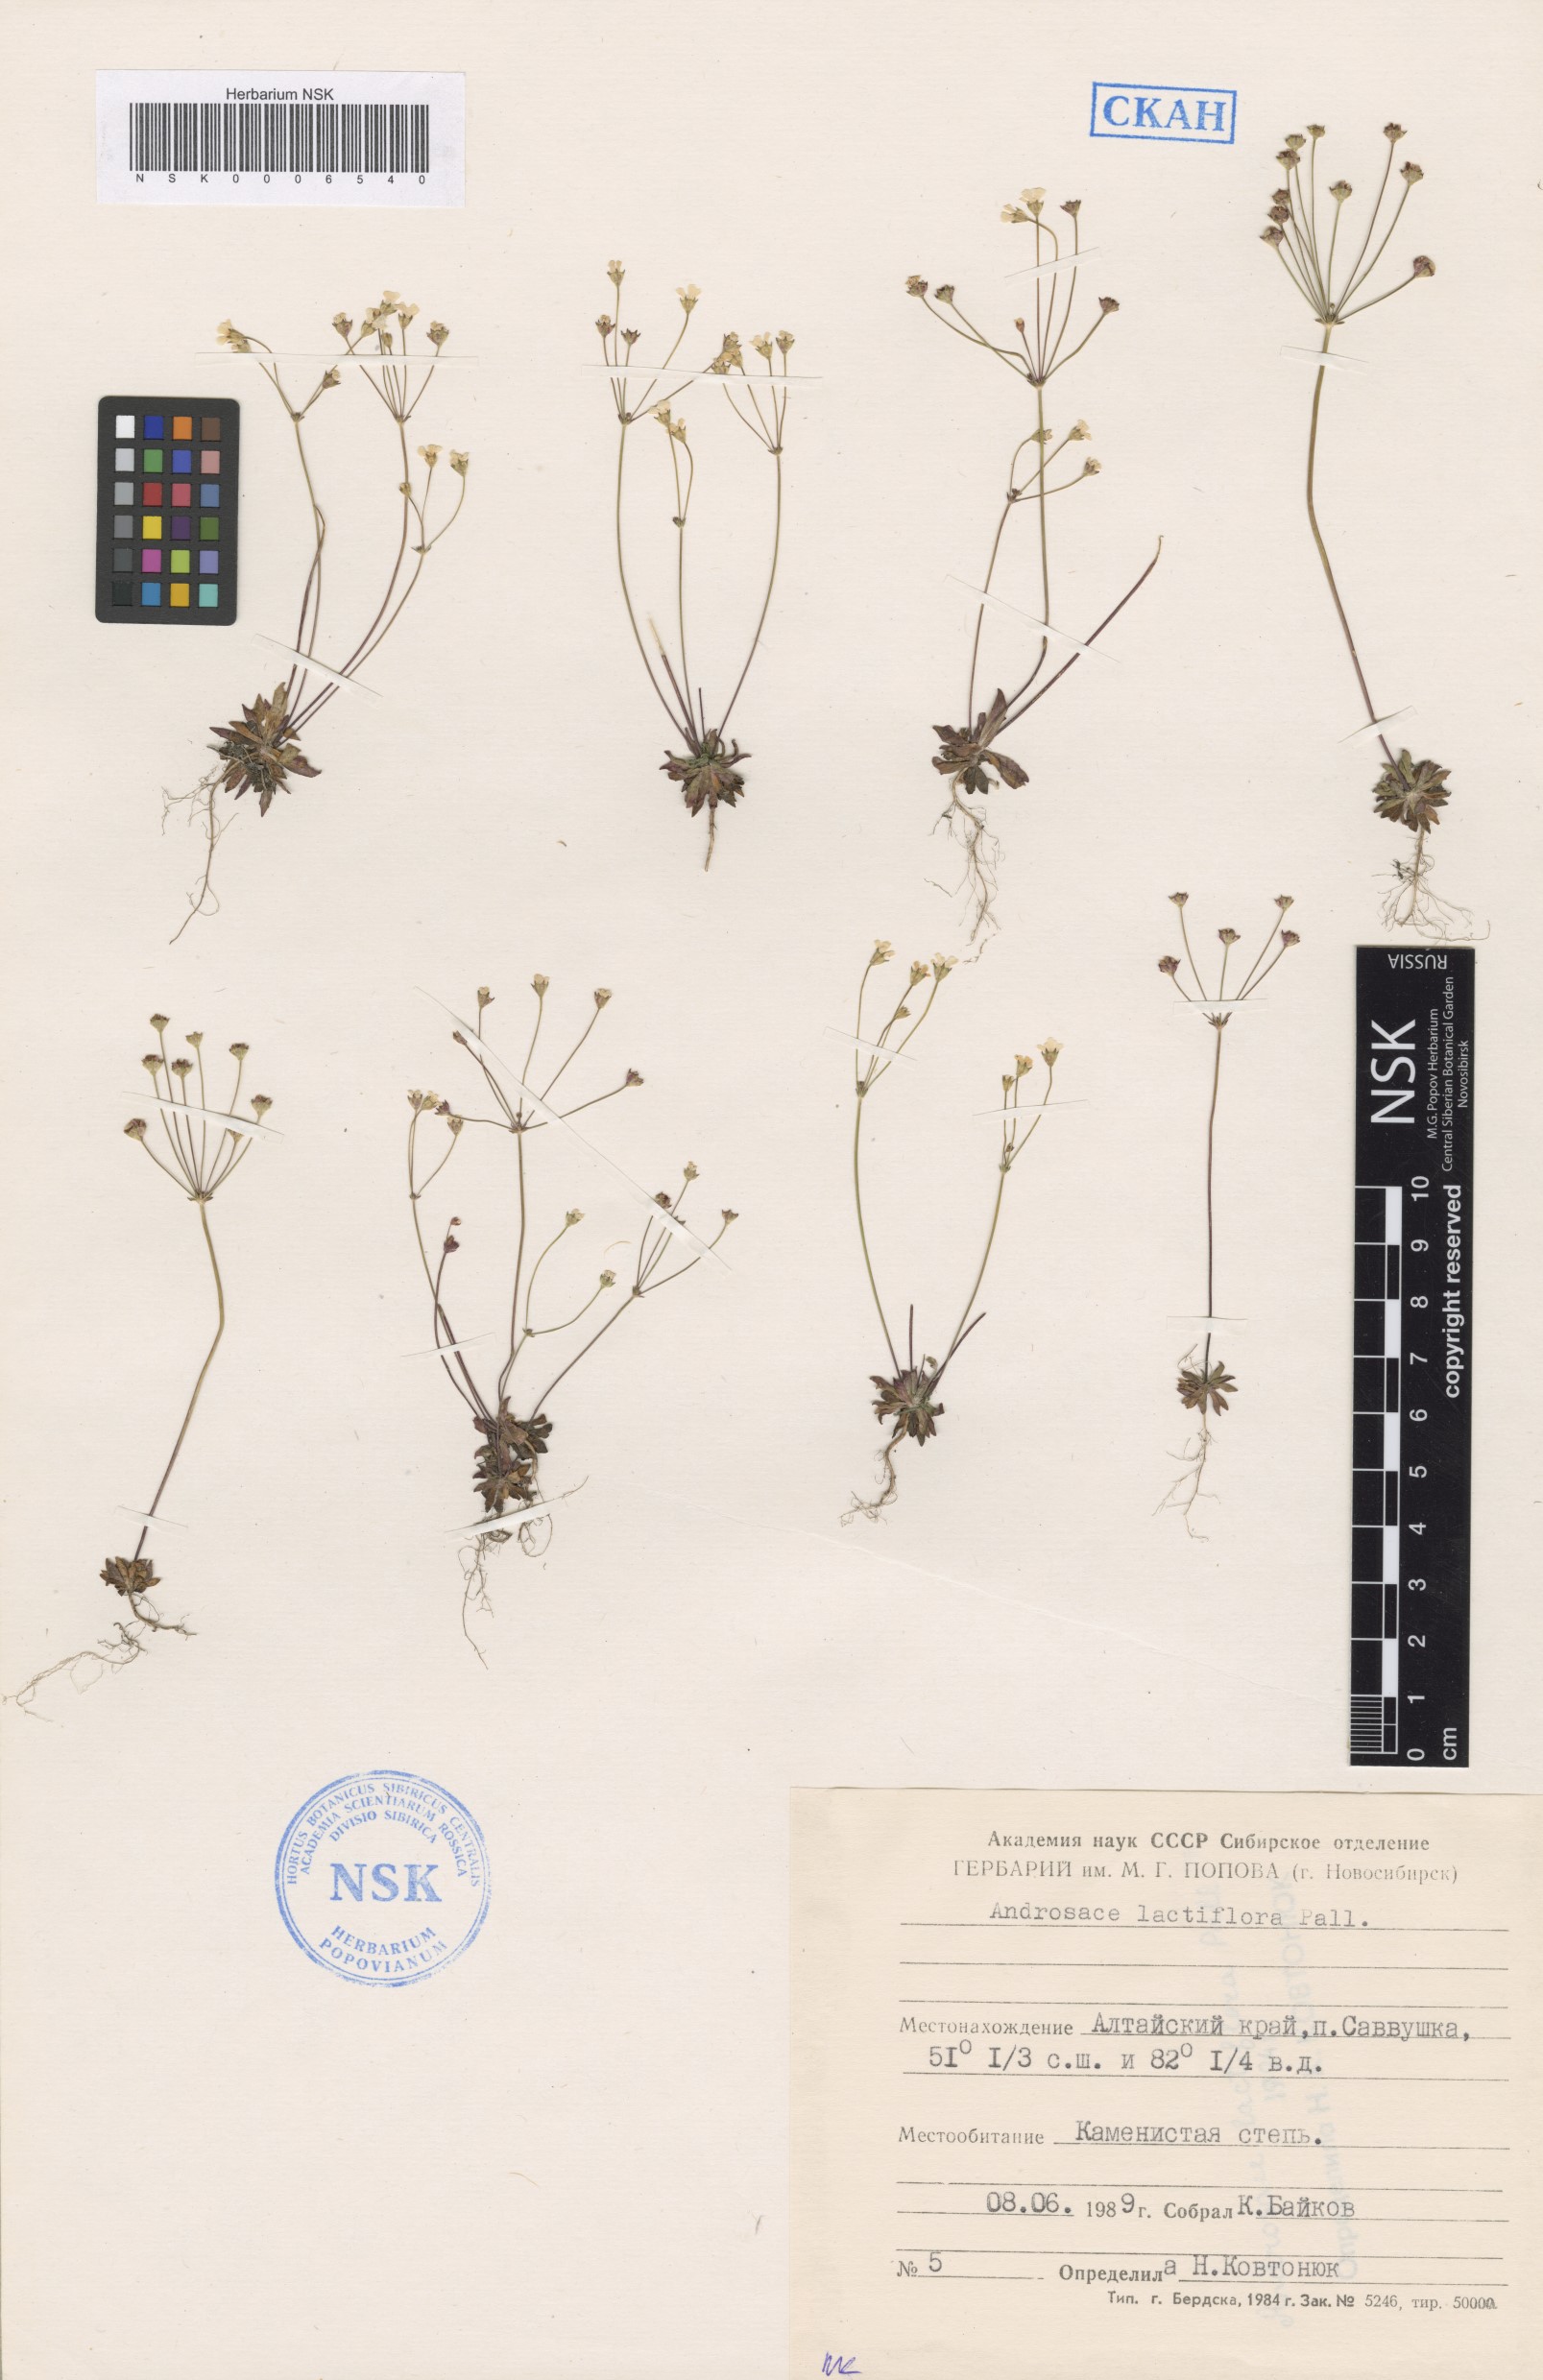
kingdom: Plantae
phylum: Tracheophyta
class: Magnoliopsida
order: Ericales
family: Primulaceae
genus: Androsace
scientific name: Androsace lactiflora
